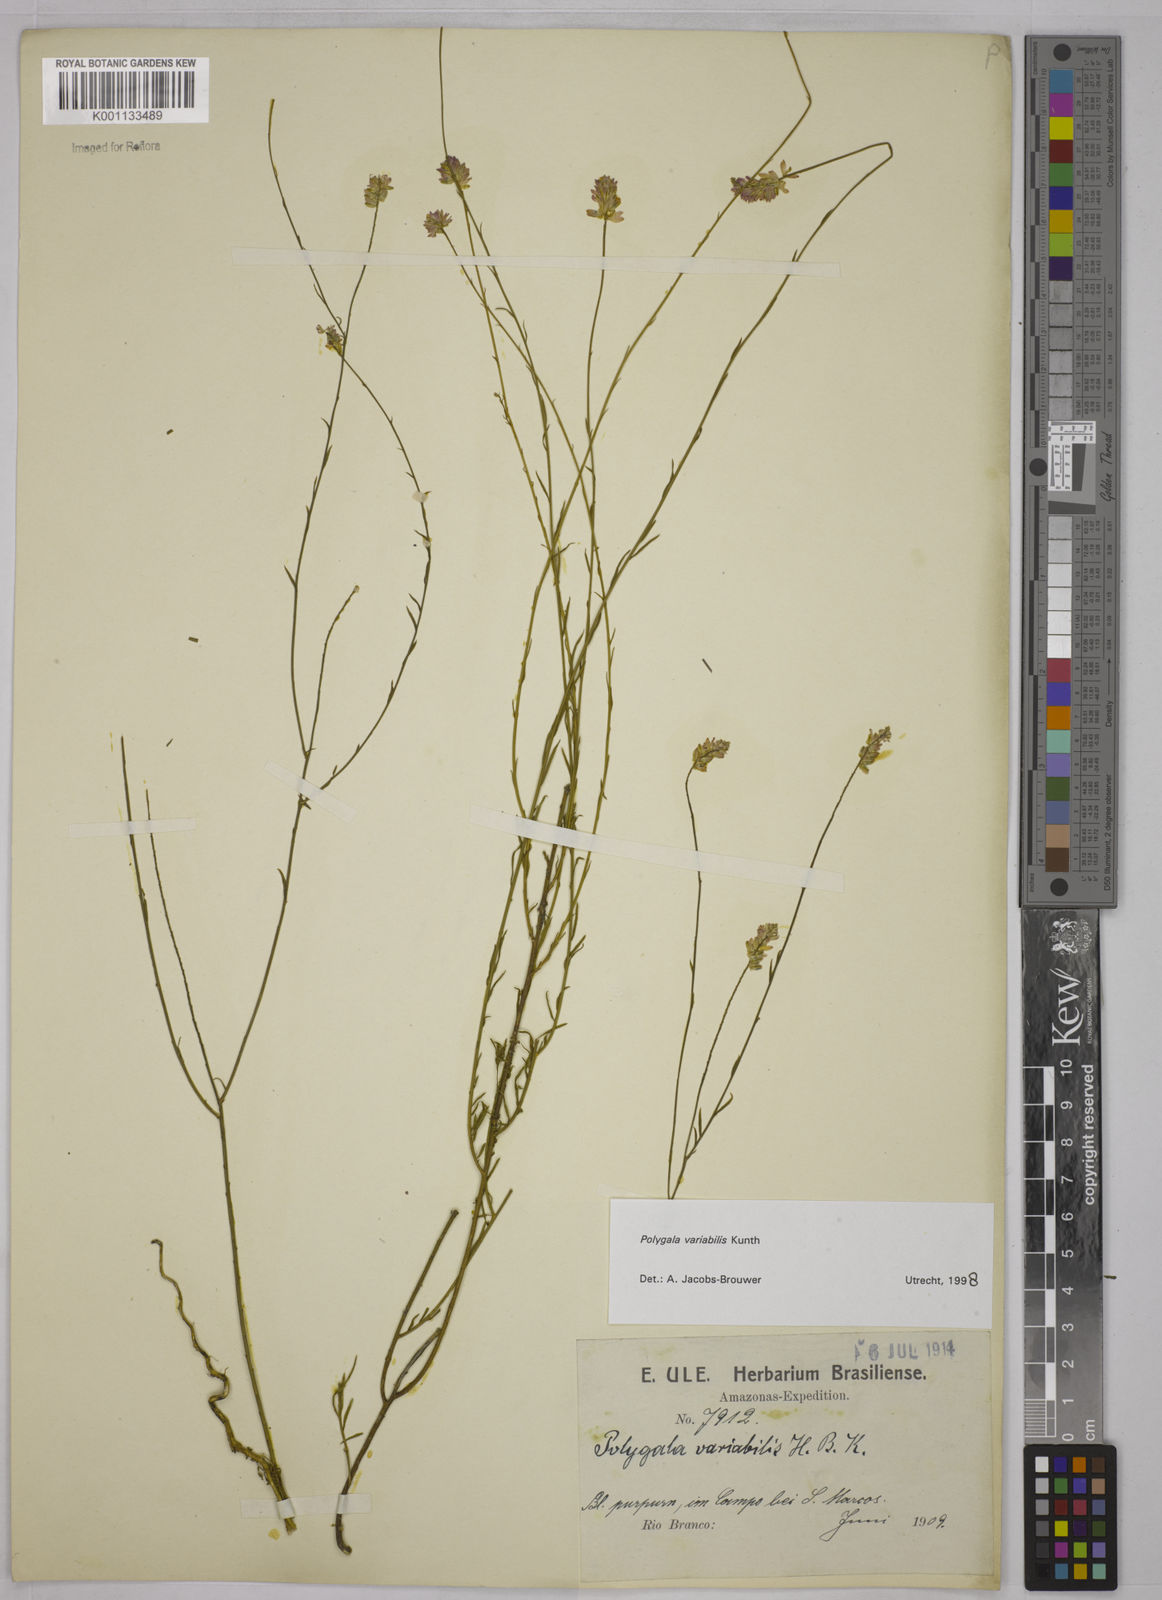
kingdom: Plantae
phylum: Tracheophyta
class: Magnoliopsida
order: Fabales
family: Polygalaceae
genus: Polygala
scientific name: Polygala trichosperma
